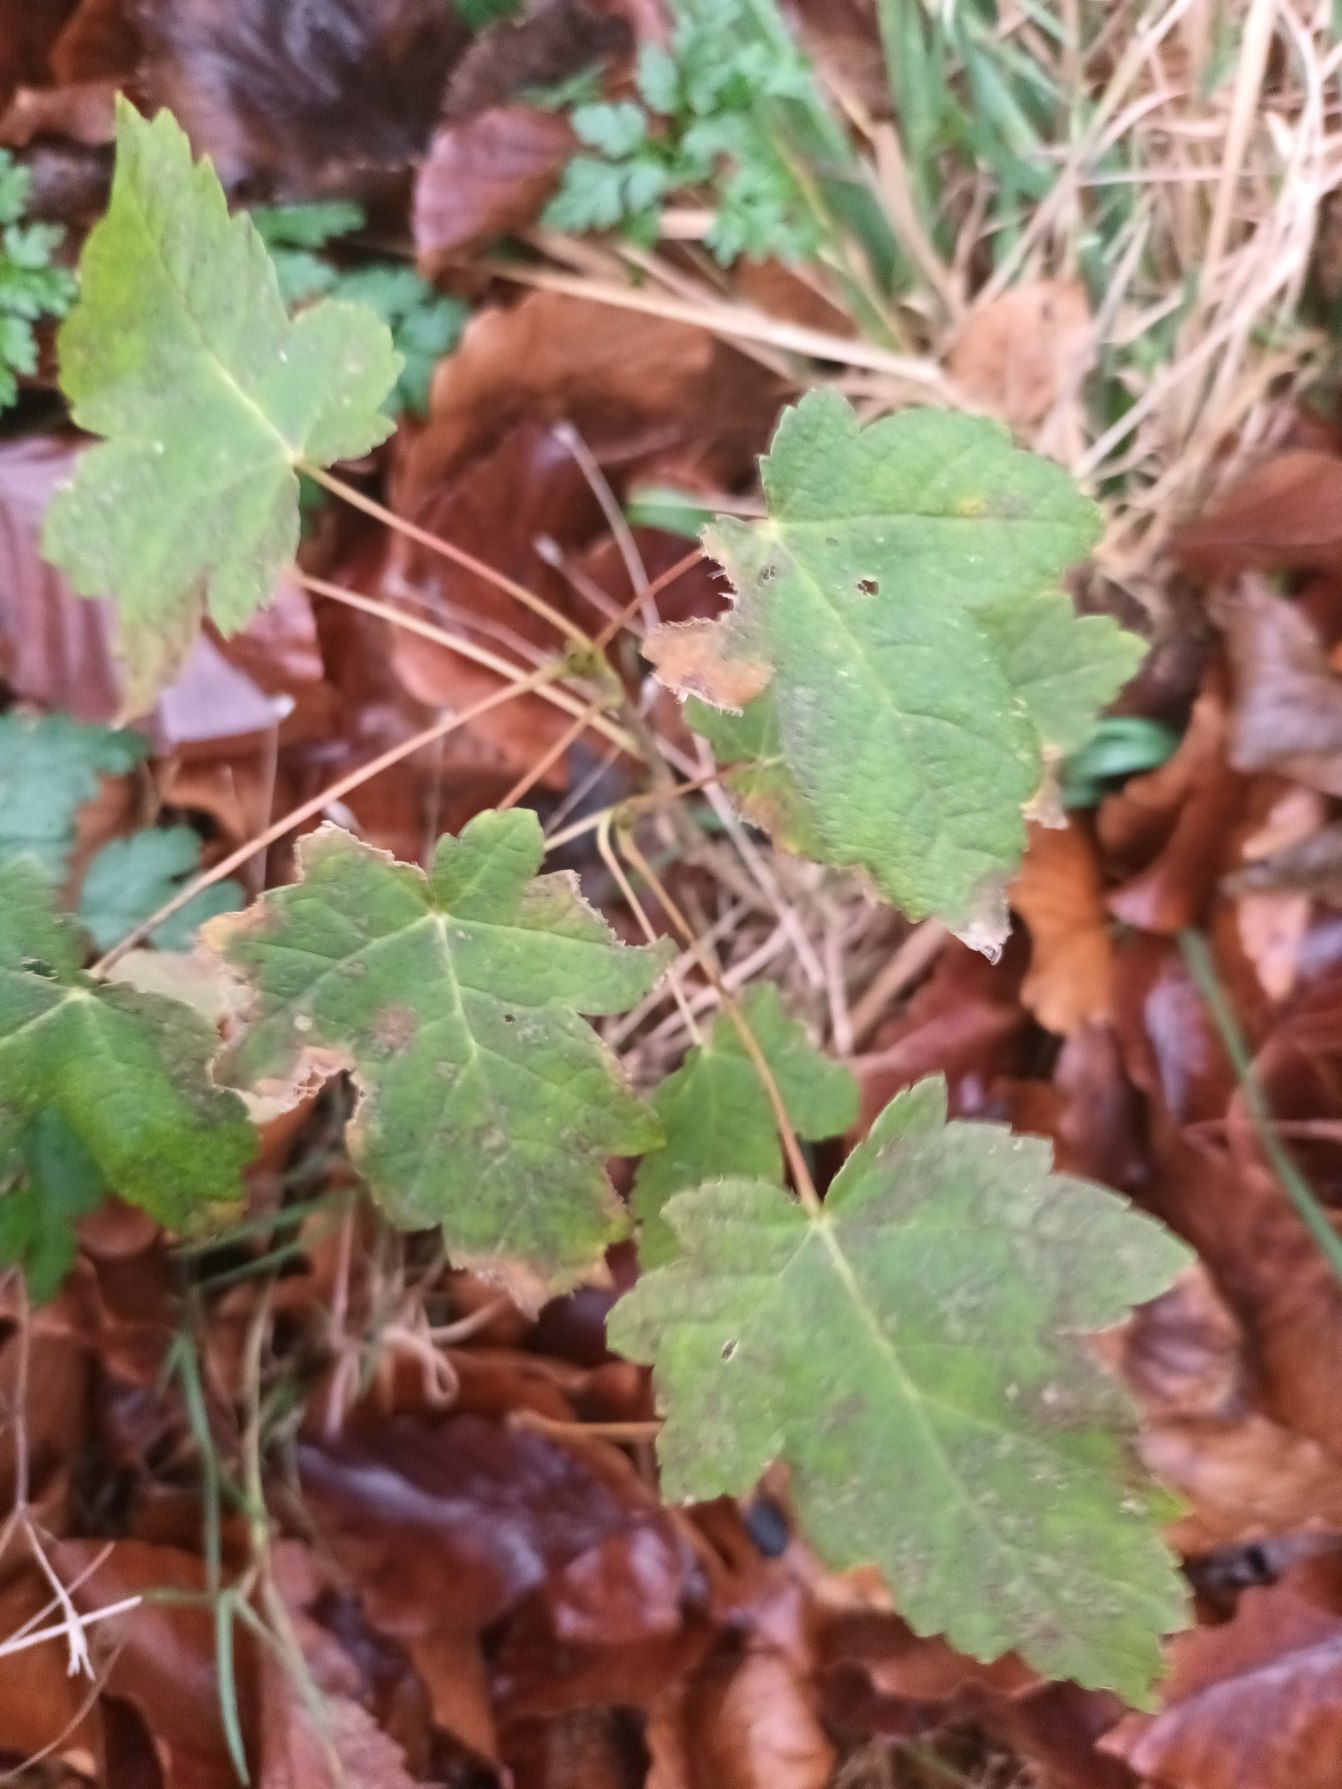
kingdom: Plantae
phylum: Tracheophyta
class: Magnoliopsida
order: Sapindales
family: Sapindaceae
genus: Acer
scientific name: Acer pseudoplatanus
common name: Ahorn
